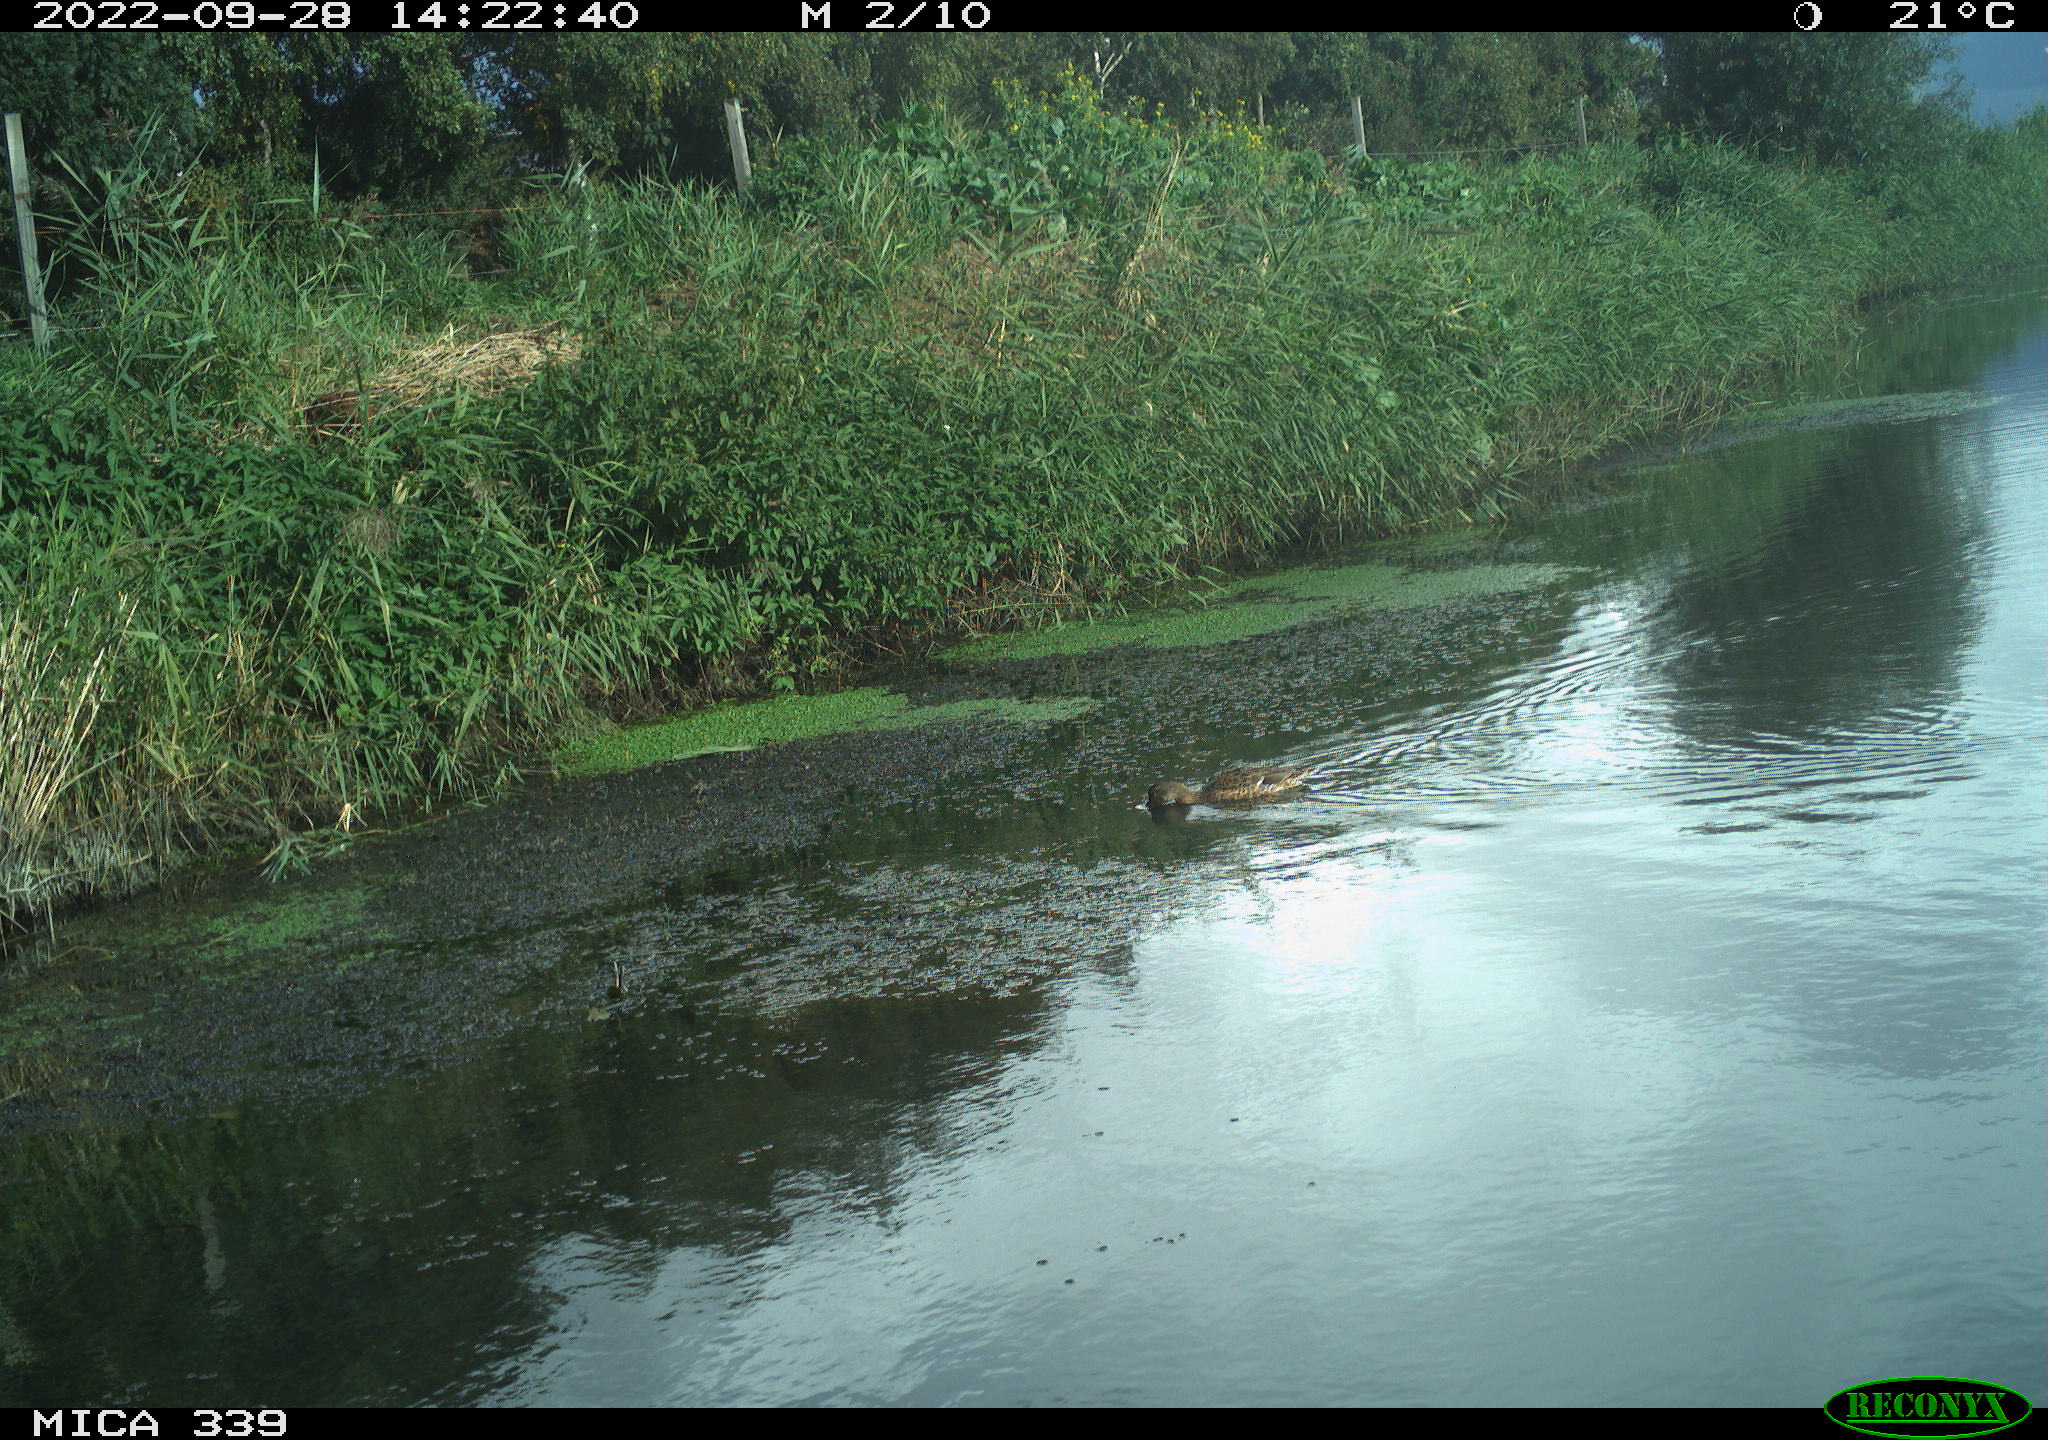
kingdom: Animalia
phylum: Chordata
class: Aves
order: Anseriformes
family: Anatidae
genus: Anas
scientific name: Anas platyrhynchos
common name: Mallard
